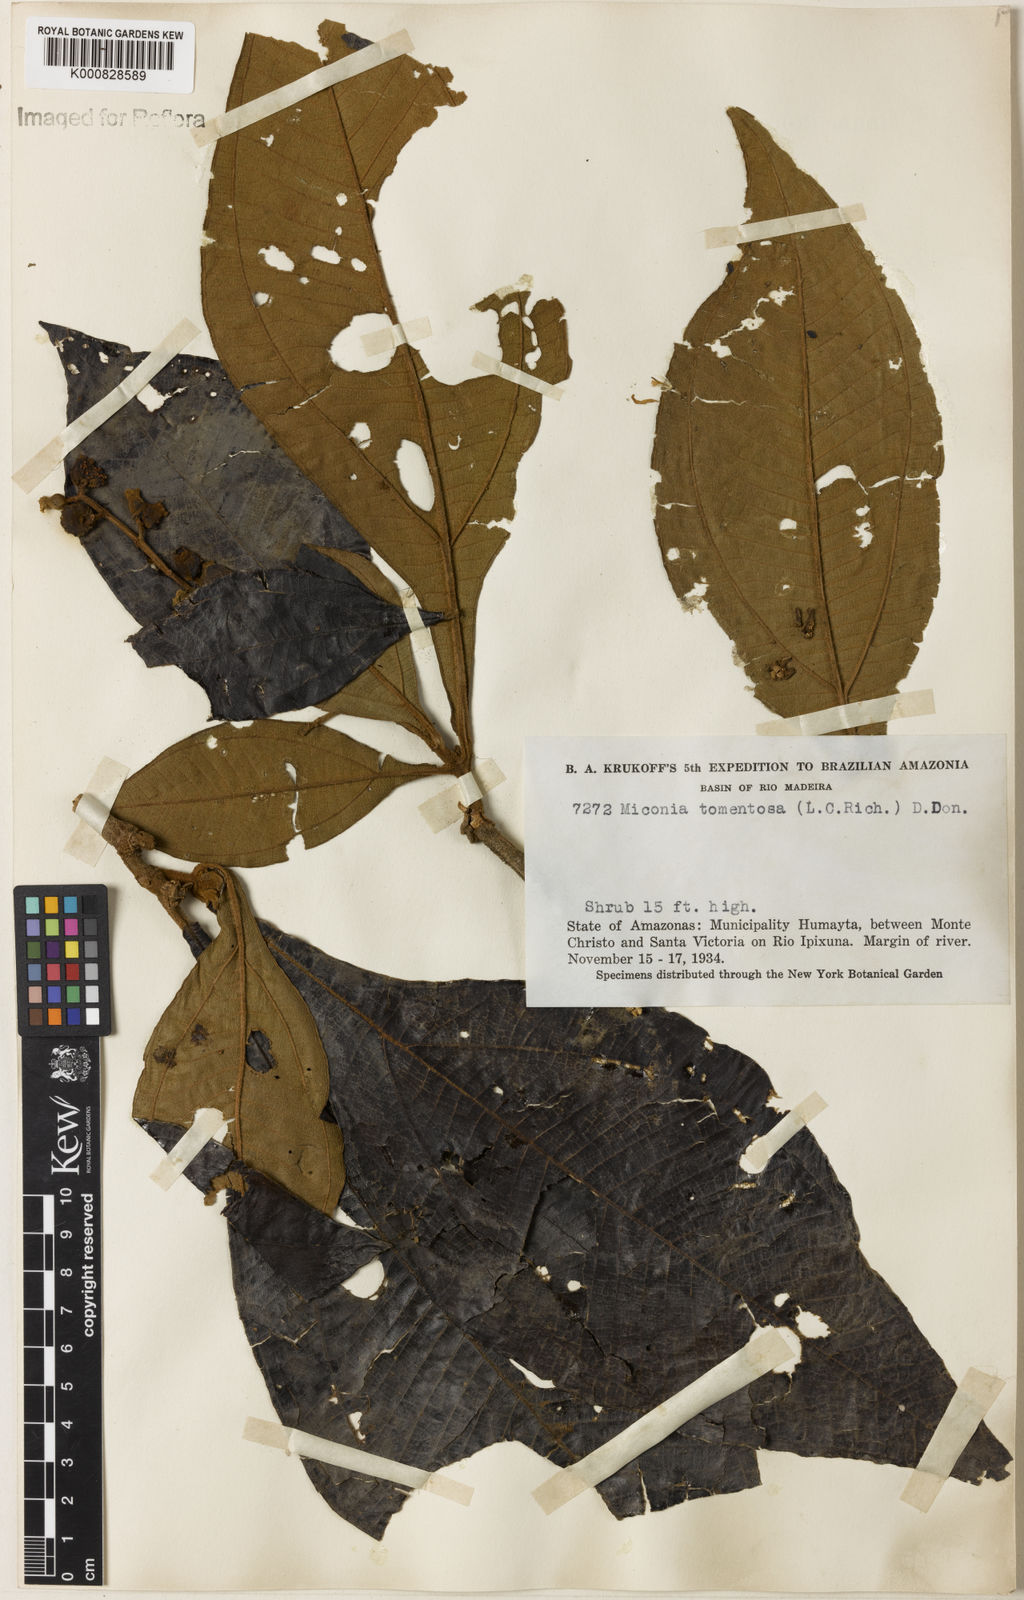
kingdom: Plantae
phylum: Tracheophyta
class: Magnoliopsida
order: Myrtales
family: Melastomataceae
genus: Miconia
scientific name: Miconia tomentosa
